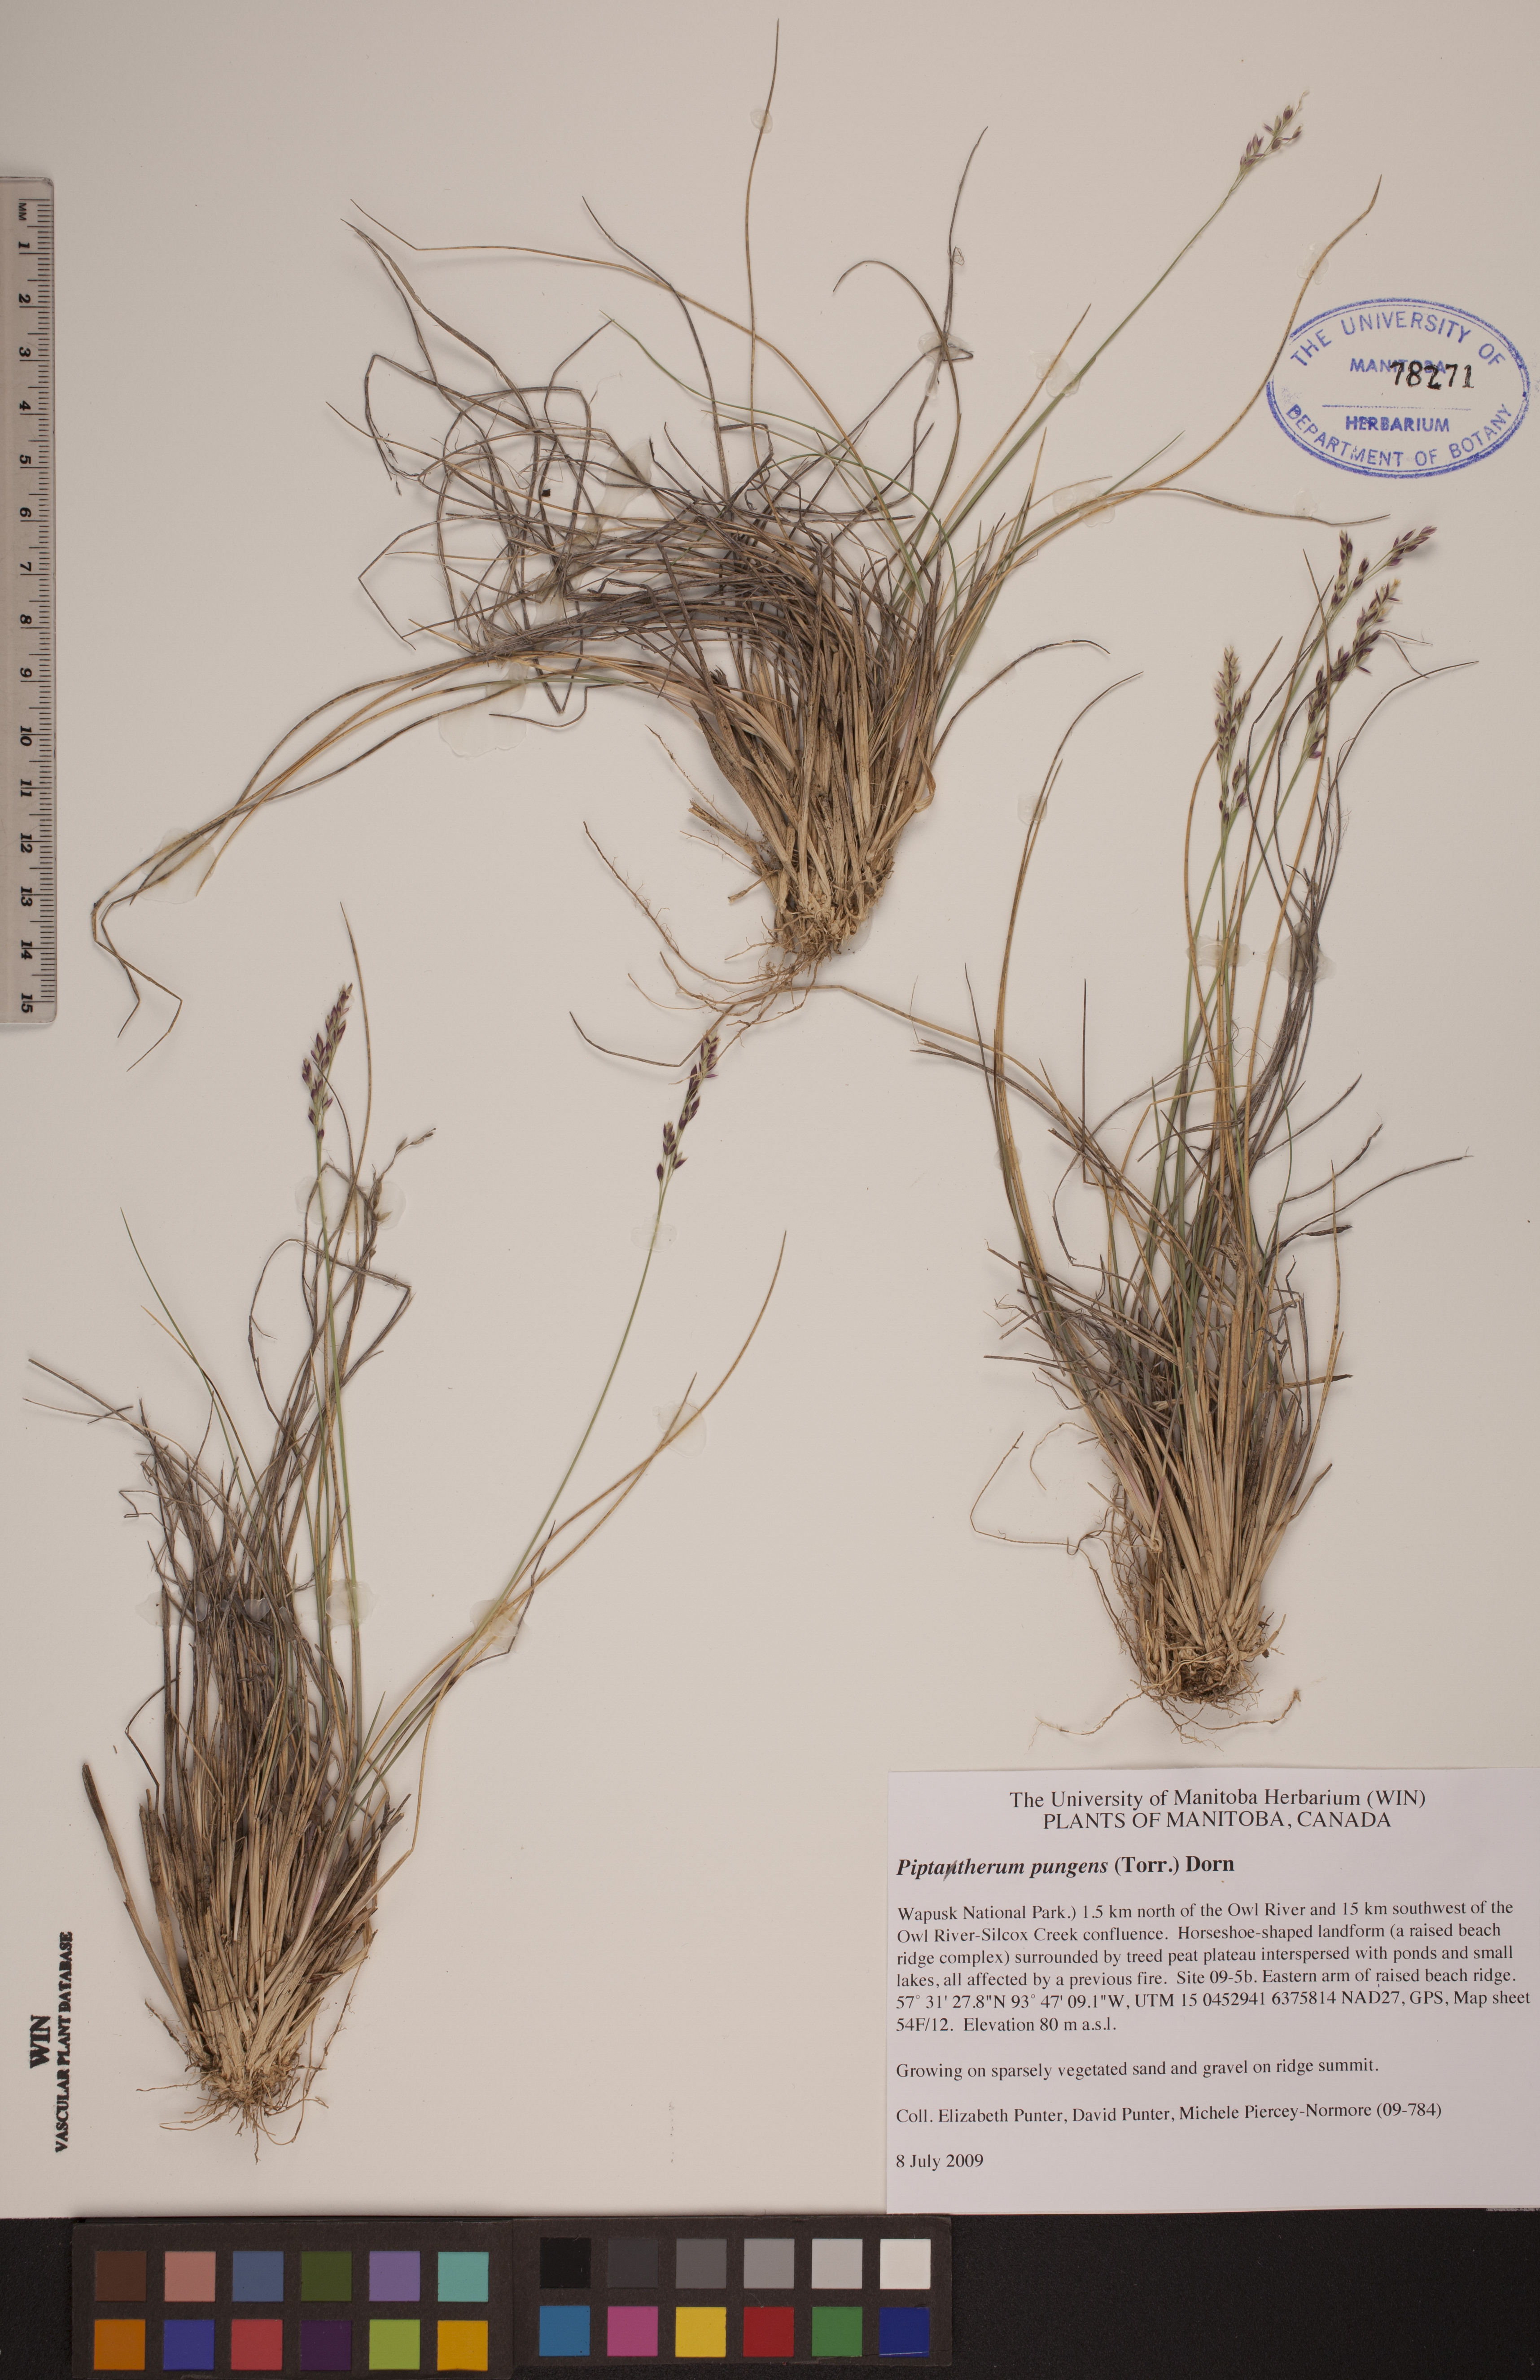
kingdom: Plantae
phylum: Tracheophyta
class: Liliopsida
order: Poales
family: Poaceae
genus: Piptatheropsis
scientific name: Piptatheropsis pungens
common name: Northern ricegrass
